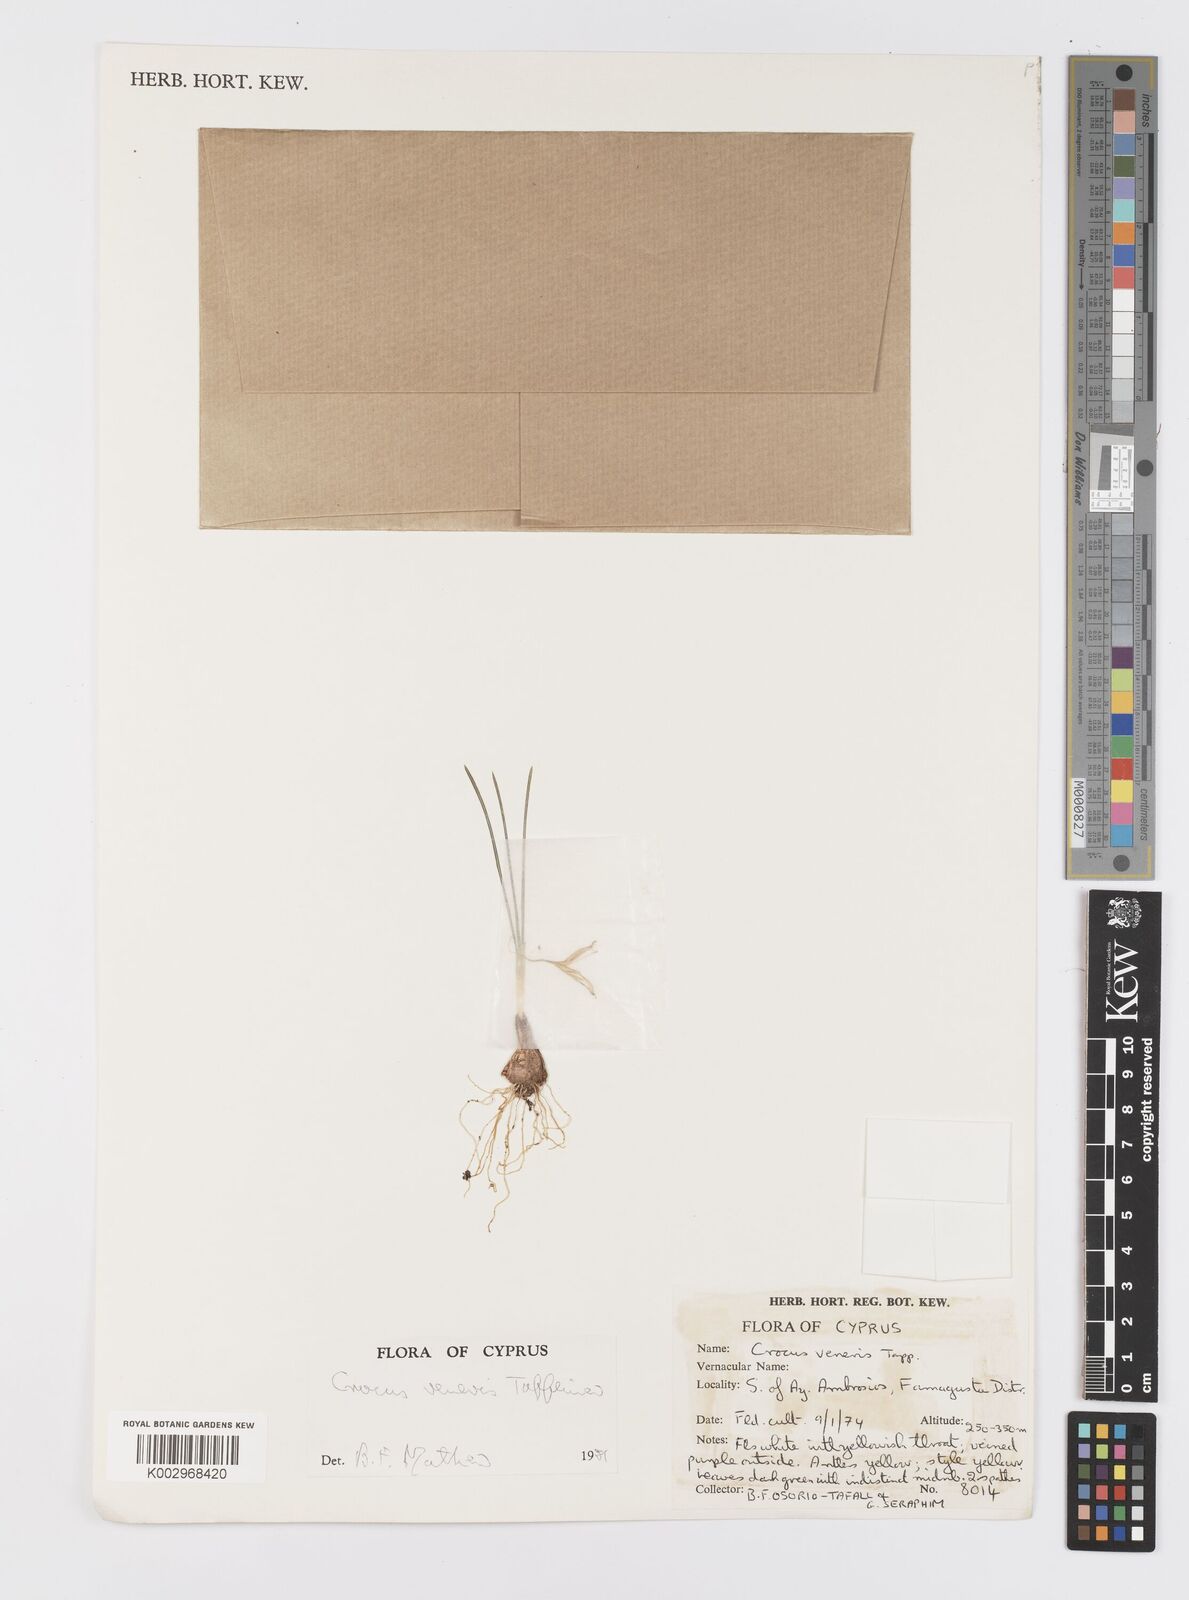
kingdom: Plantae
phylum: Tracheophyta
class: Liliopsida
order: Asparagales
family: Iridaceae
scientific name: Iridaceae
